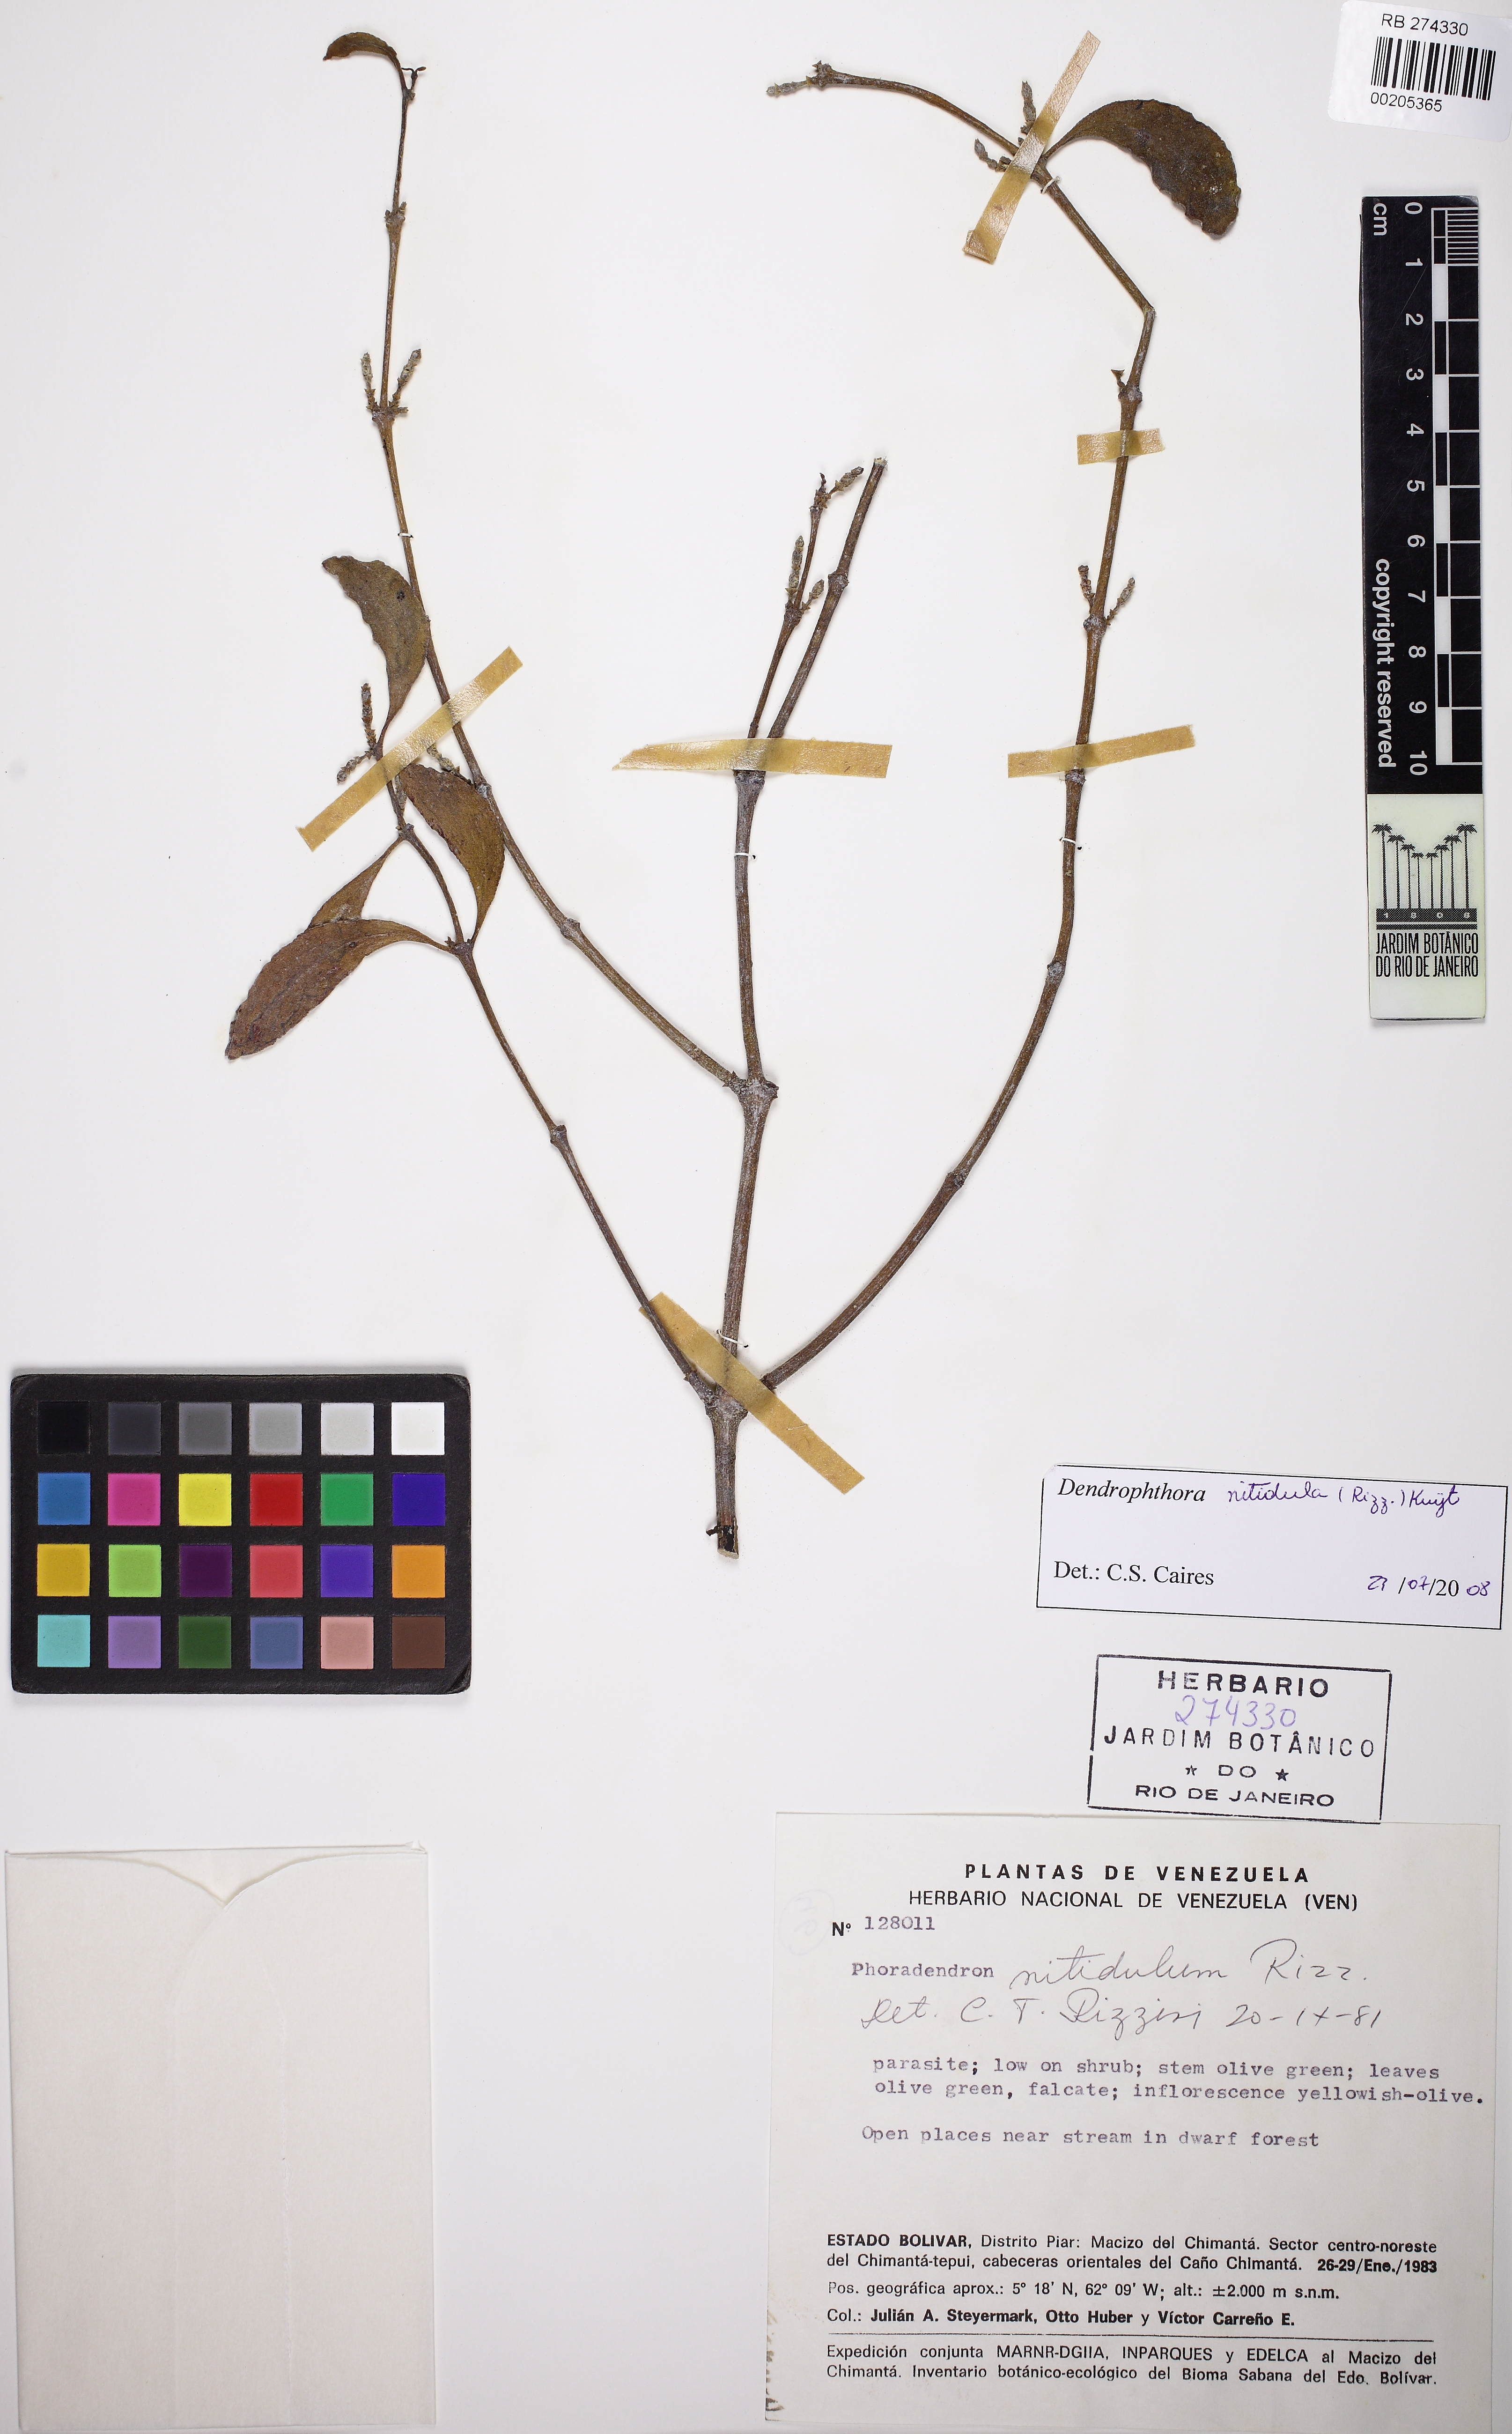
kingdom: Plantae
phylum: Tracheophyta
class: Magnoliopsida
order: Santalales
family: Viscaceae
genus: Dendrophthora
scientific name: Dendrophthora nitidula
